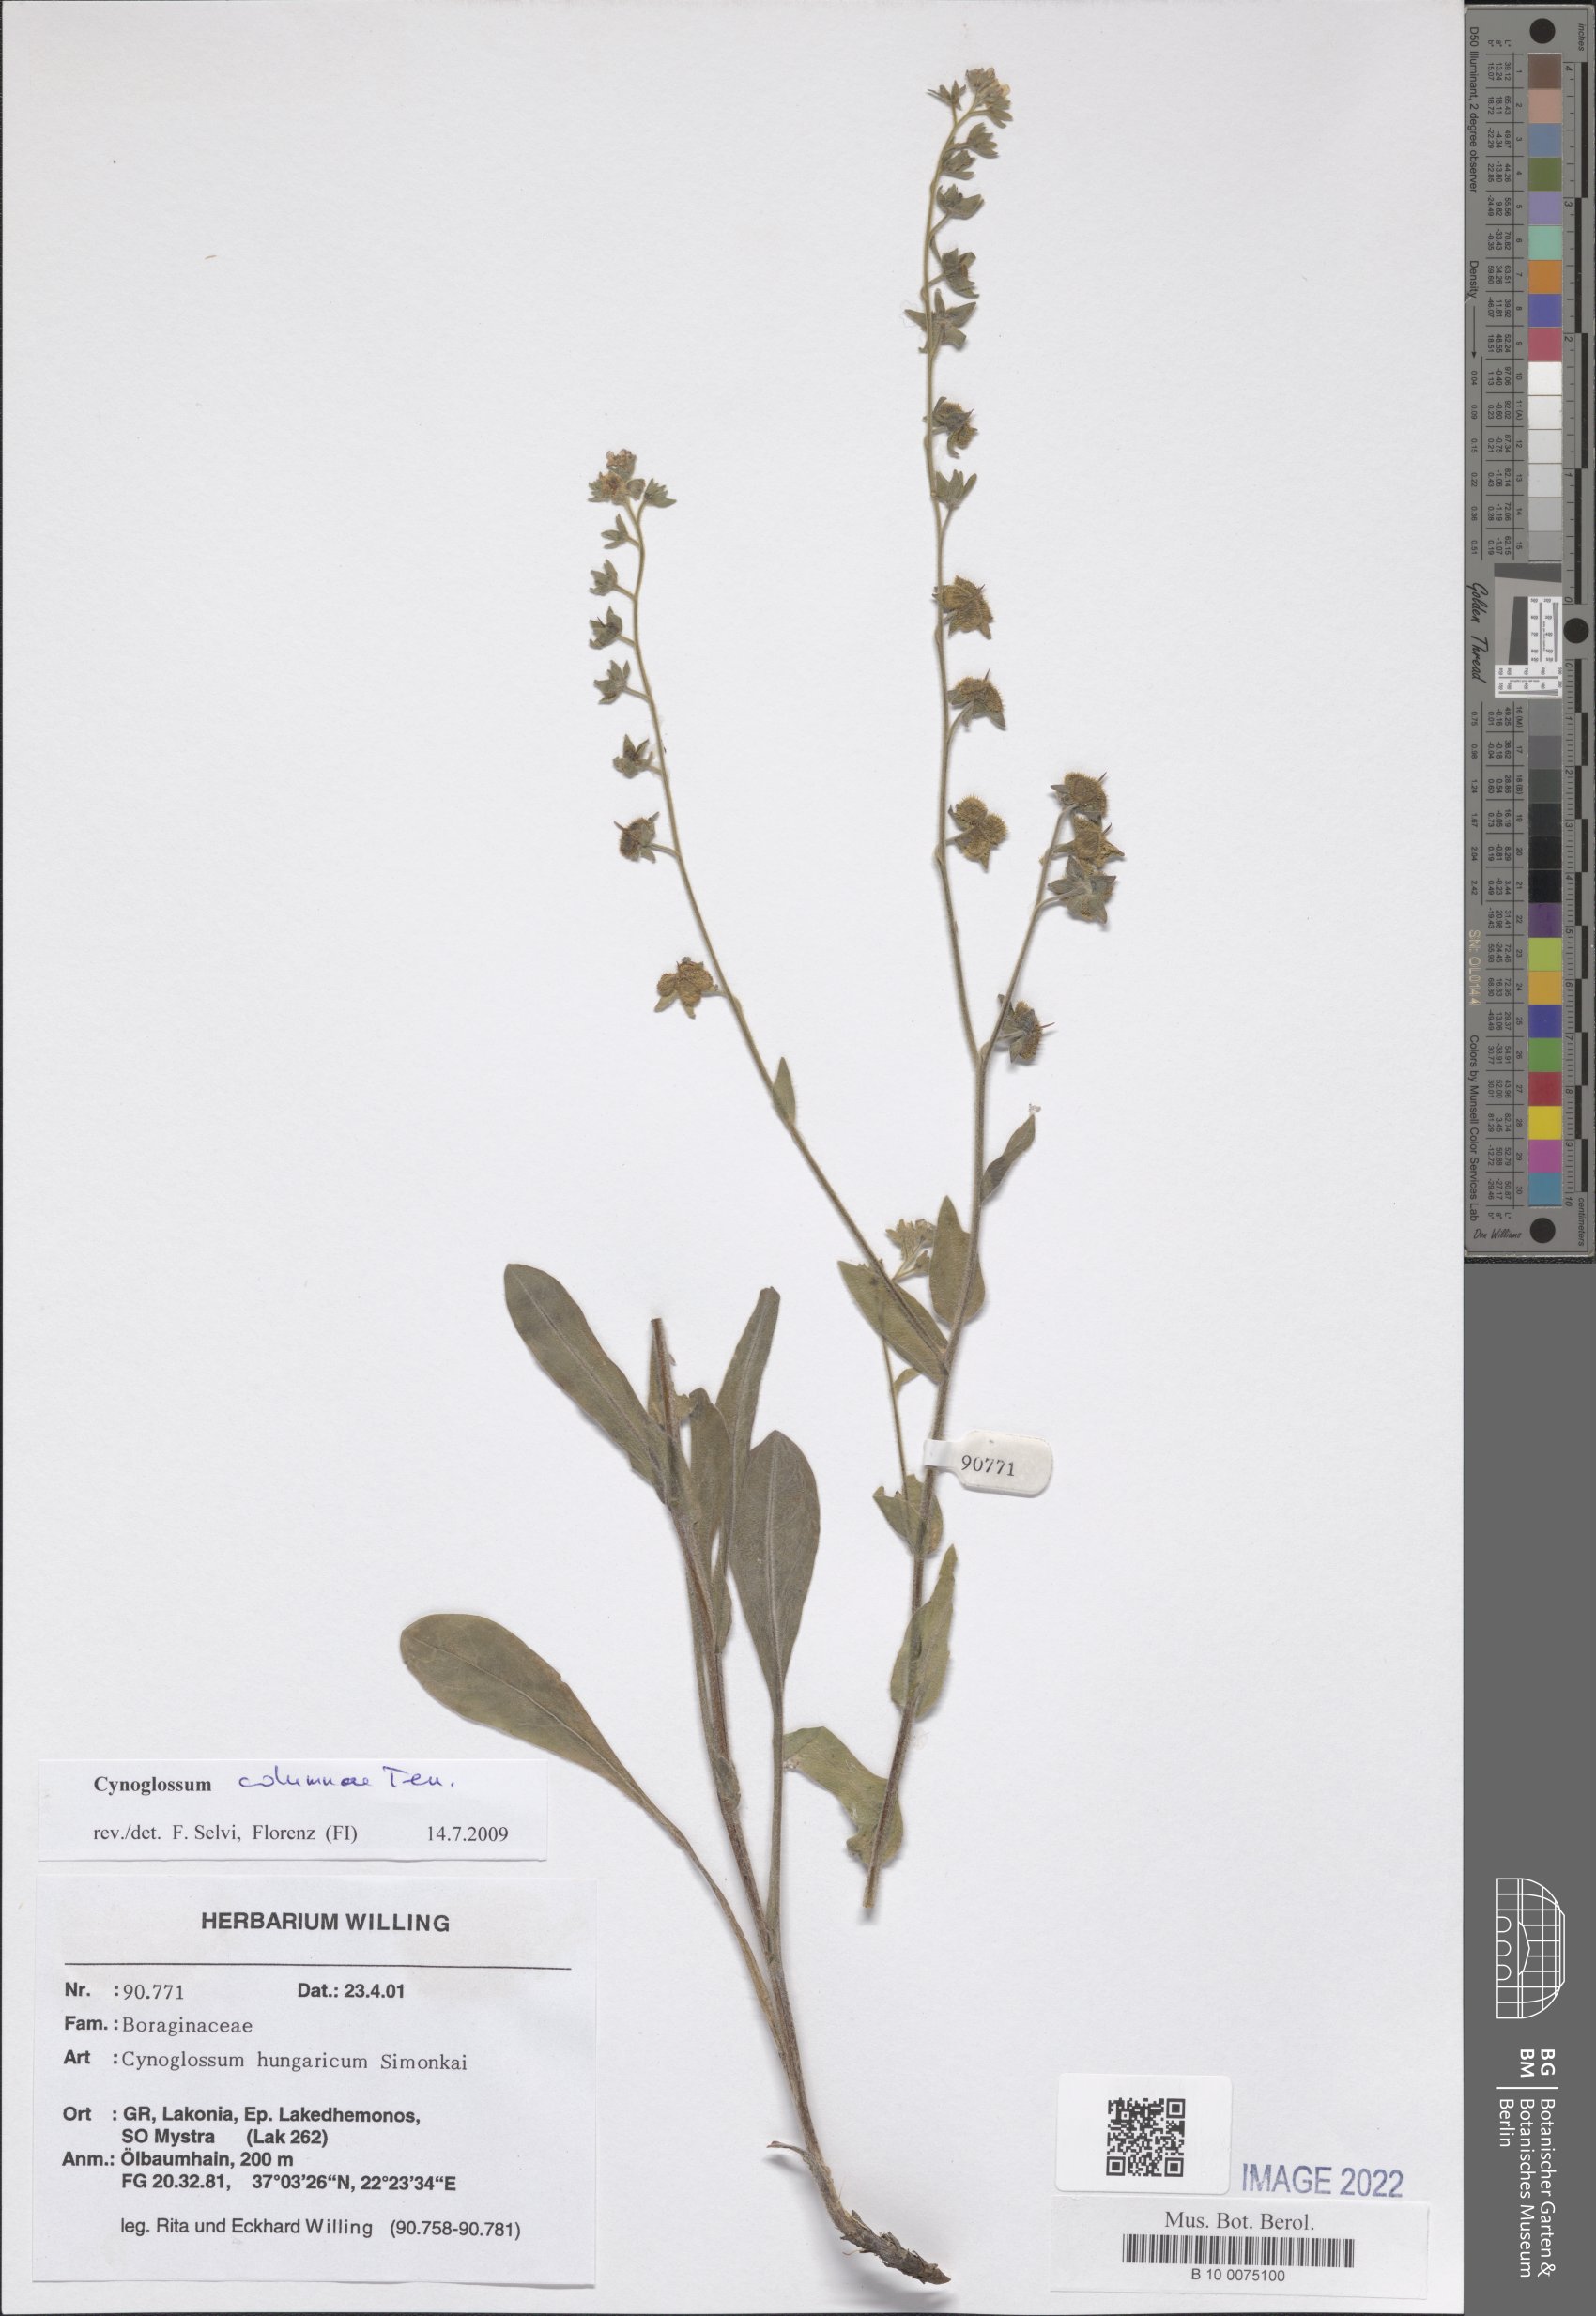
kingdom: Plantae
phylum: Tracheophyta
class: Magnoliopsida
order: Boraginales
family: Boraginaceae
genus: Rindera
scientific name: Rindera columnae
